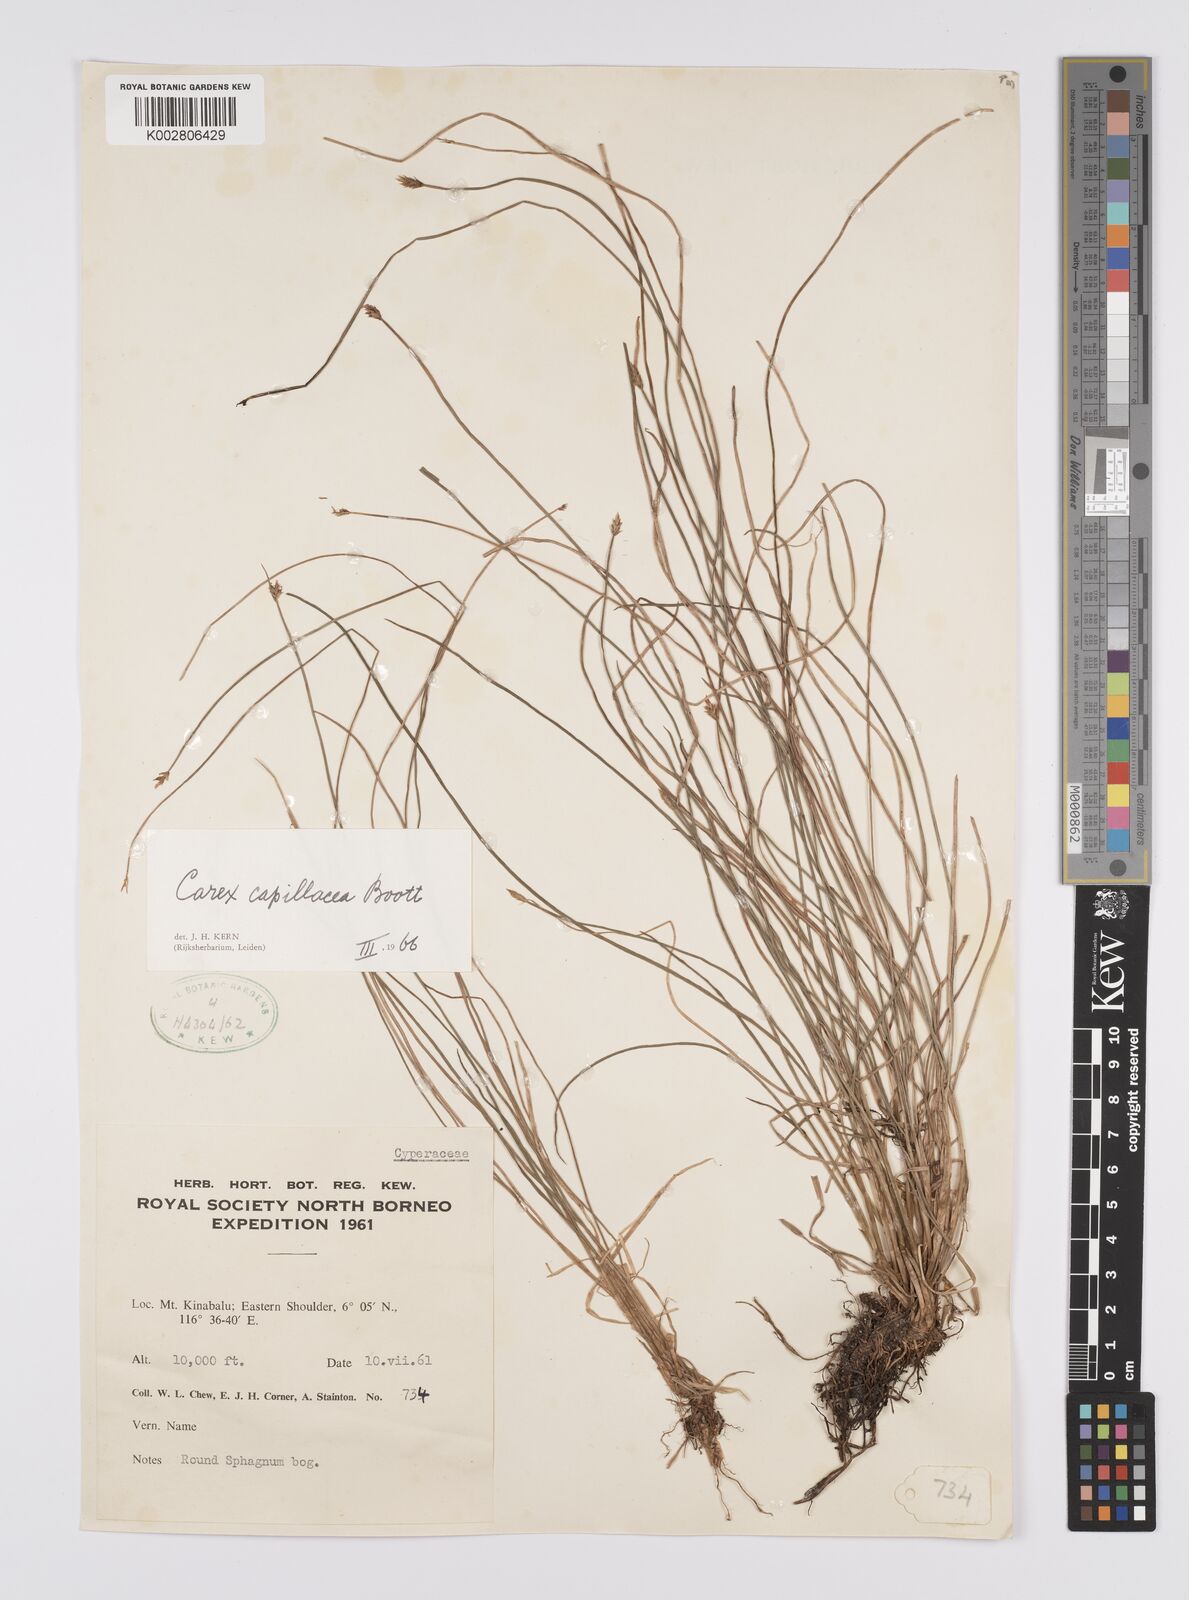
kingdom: Plantae
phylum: Tracheophyta
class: Liliopsida
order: Poales
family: Cyperaceae
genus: Carex
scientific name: Carex capillacea
